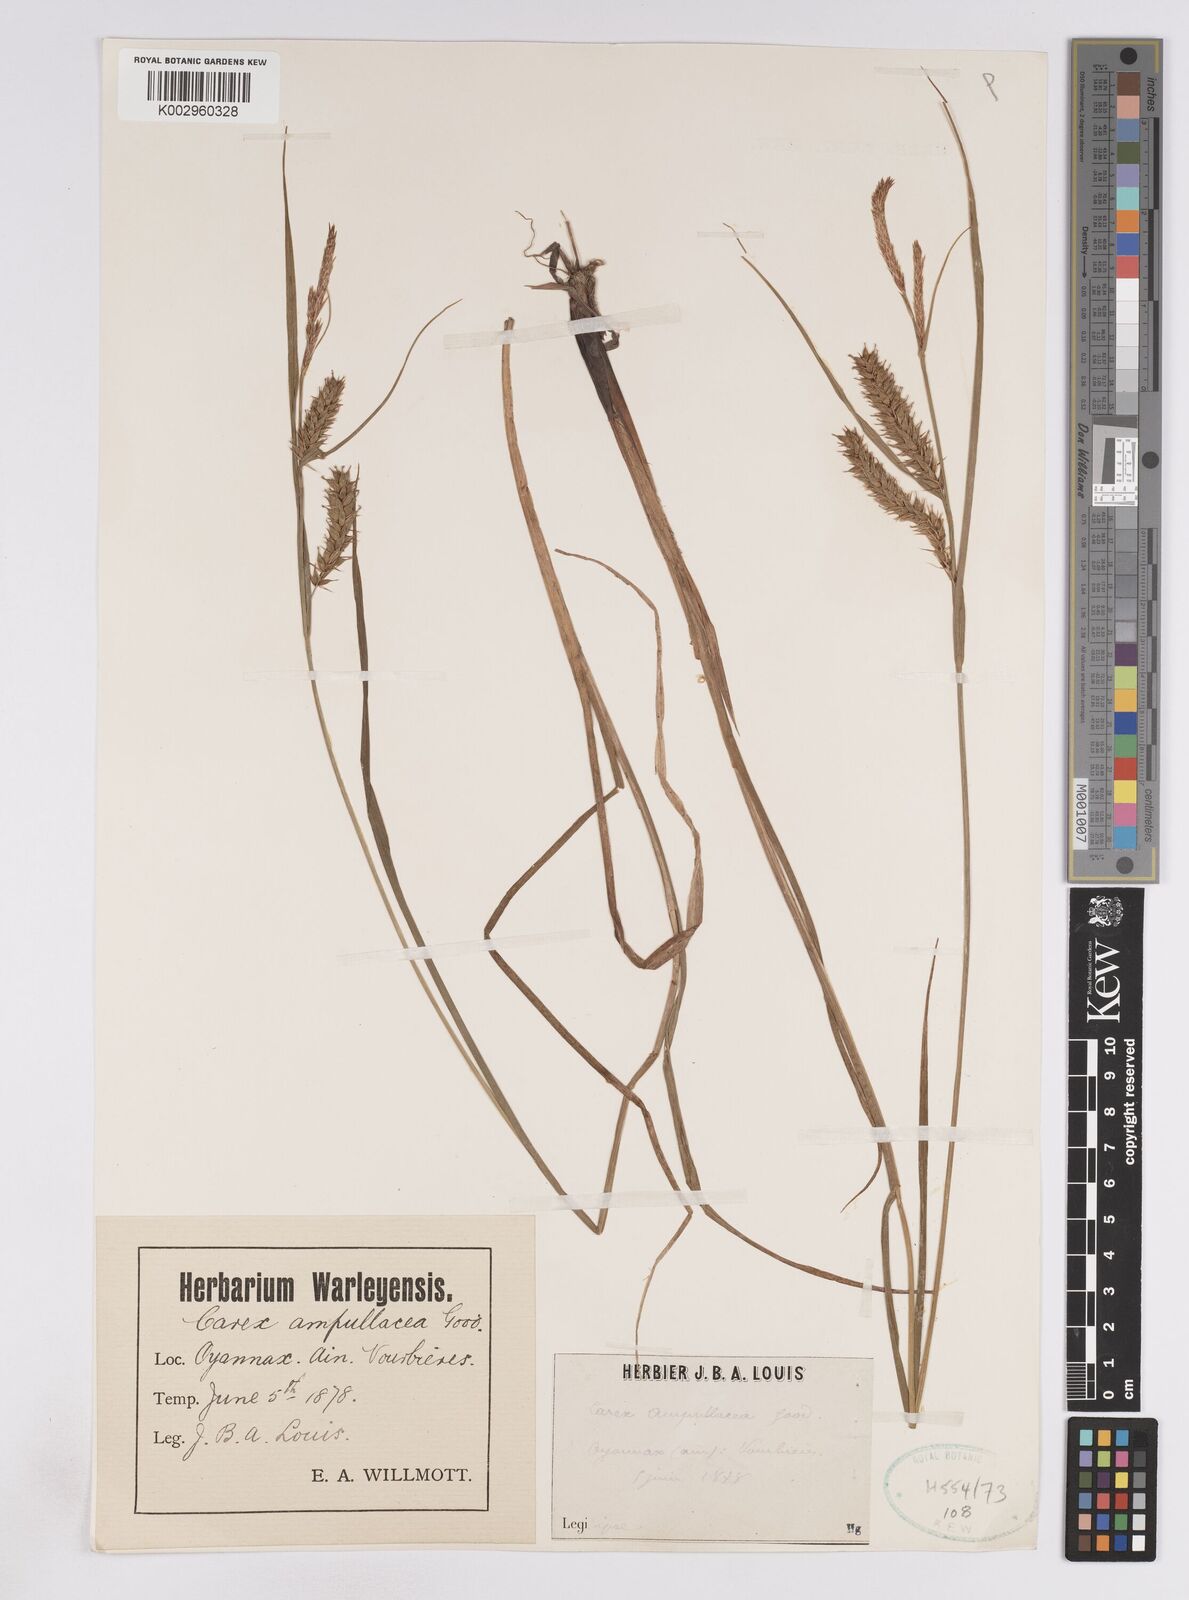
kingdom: Plantae
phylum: Tracheophyta
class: Liliopsida
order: Poales
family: Cyperaceae
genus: Carex
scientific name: Carex vesicaria
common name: Bladder-sedge
